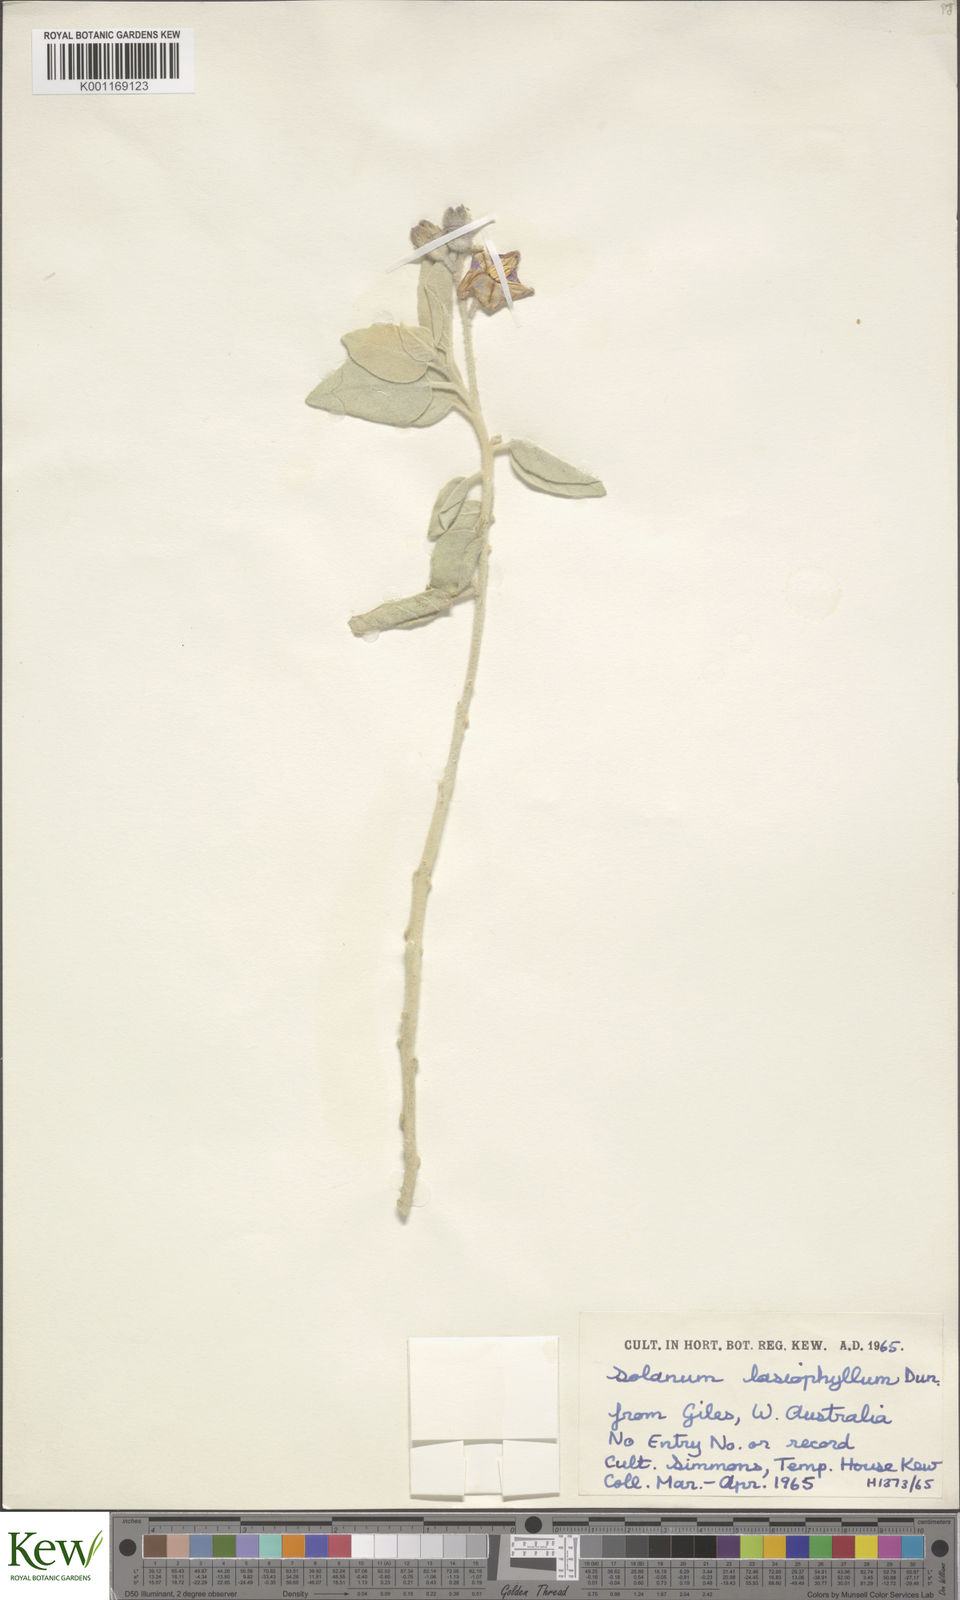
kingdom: Plantae
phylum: Tracheophyta
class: Magnoliopsida
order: Solanales
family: Solanaceae
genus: Solanum
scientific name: Solanum lasiophyllum
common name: Flannelbush
